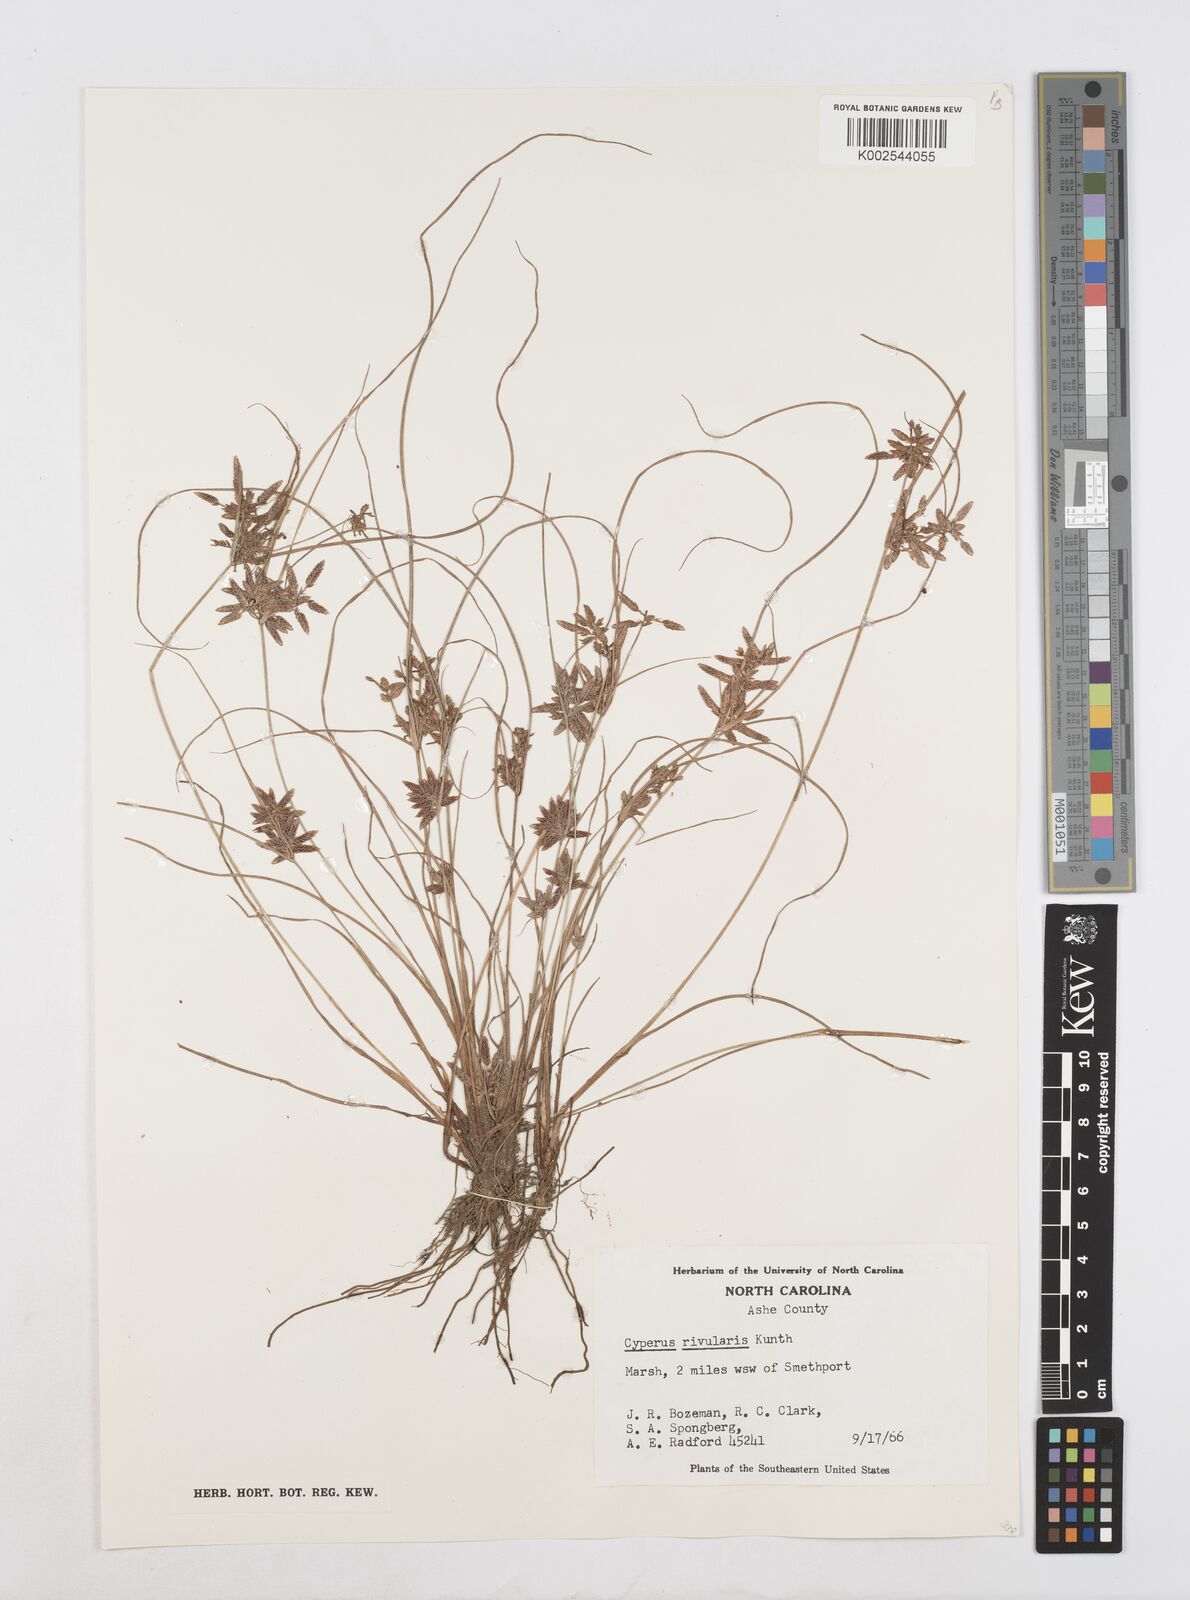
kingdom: Plantae
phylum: Tracheophyta
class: Liliopsida
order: Poales
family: Cyperaceae
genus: Cyperus
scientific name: Cyperus bipartitus
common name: Brook flatsedge
